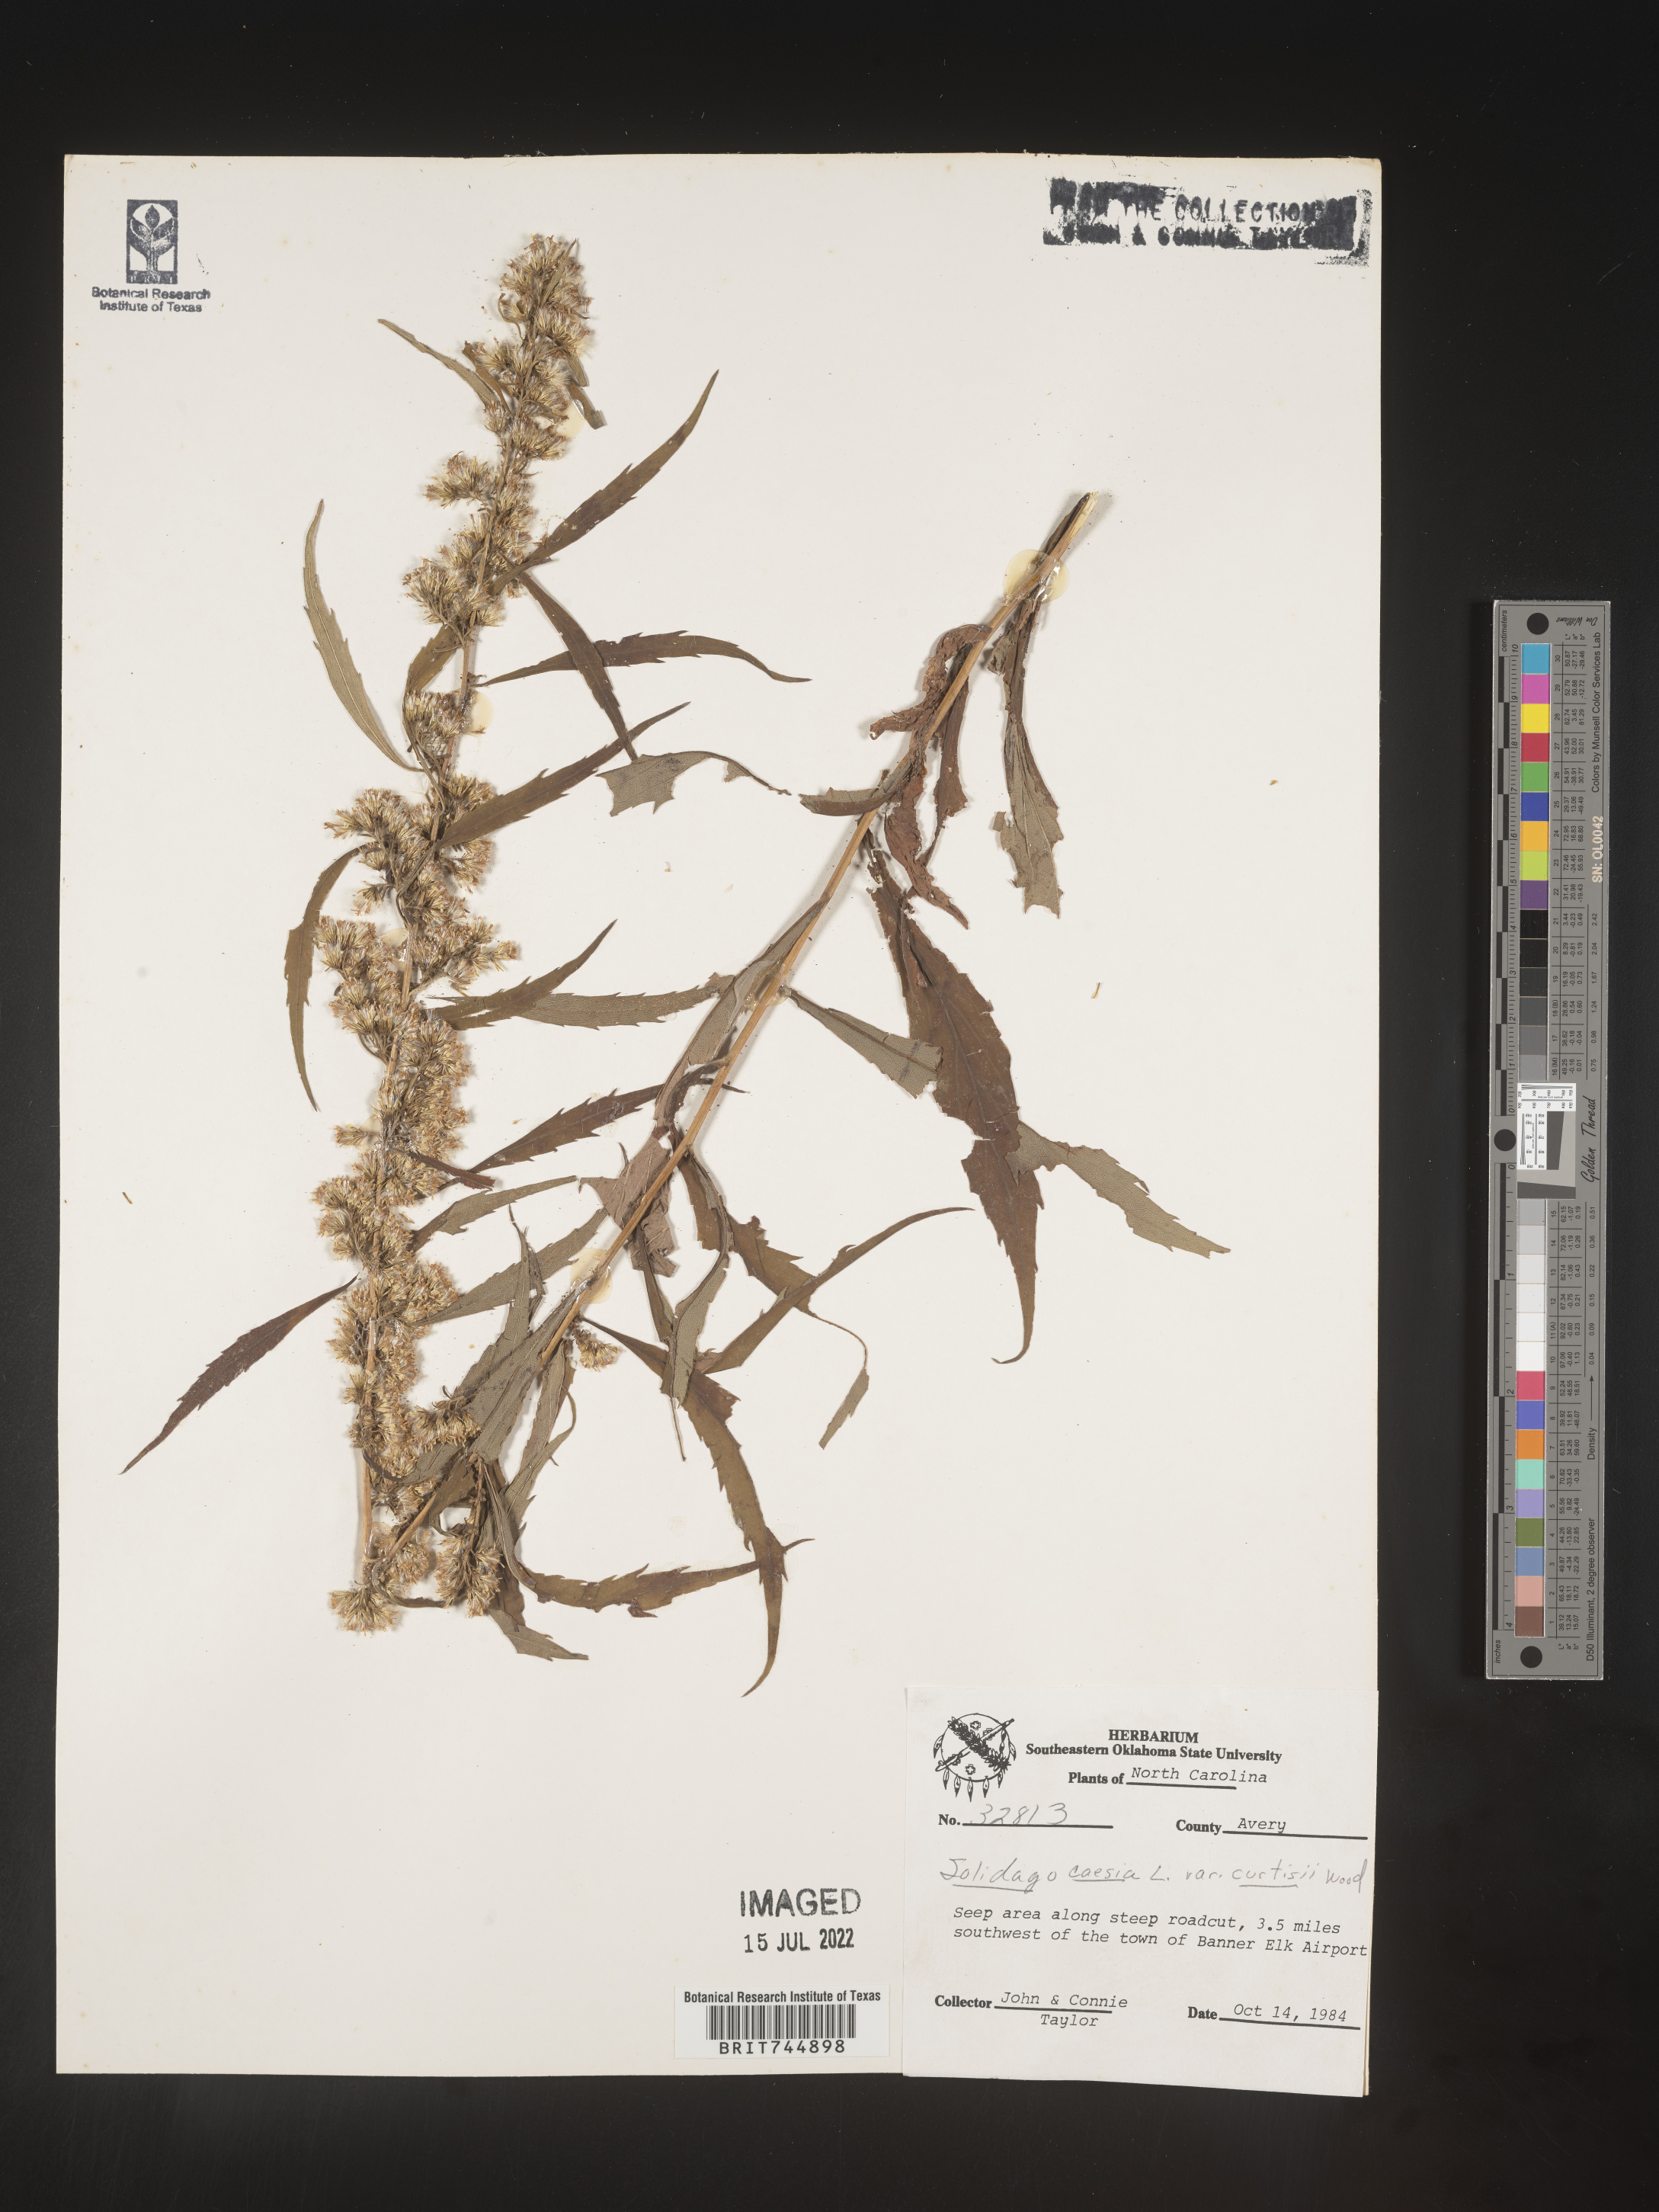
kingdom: Plantae
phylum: Tracheophyta
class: Magnoliopsida
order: Asterales
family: Asteraceae
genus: Solidago
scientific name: Solidago curtisii
